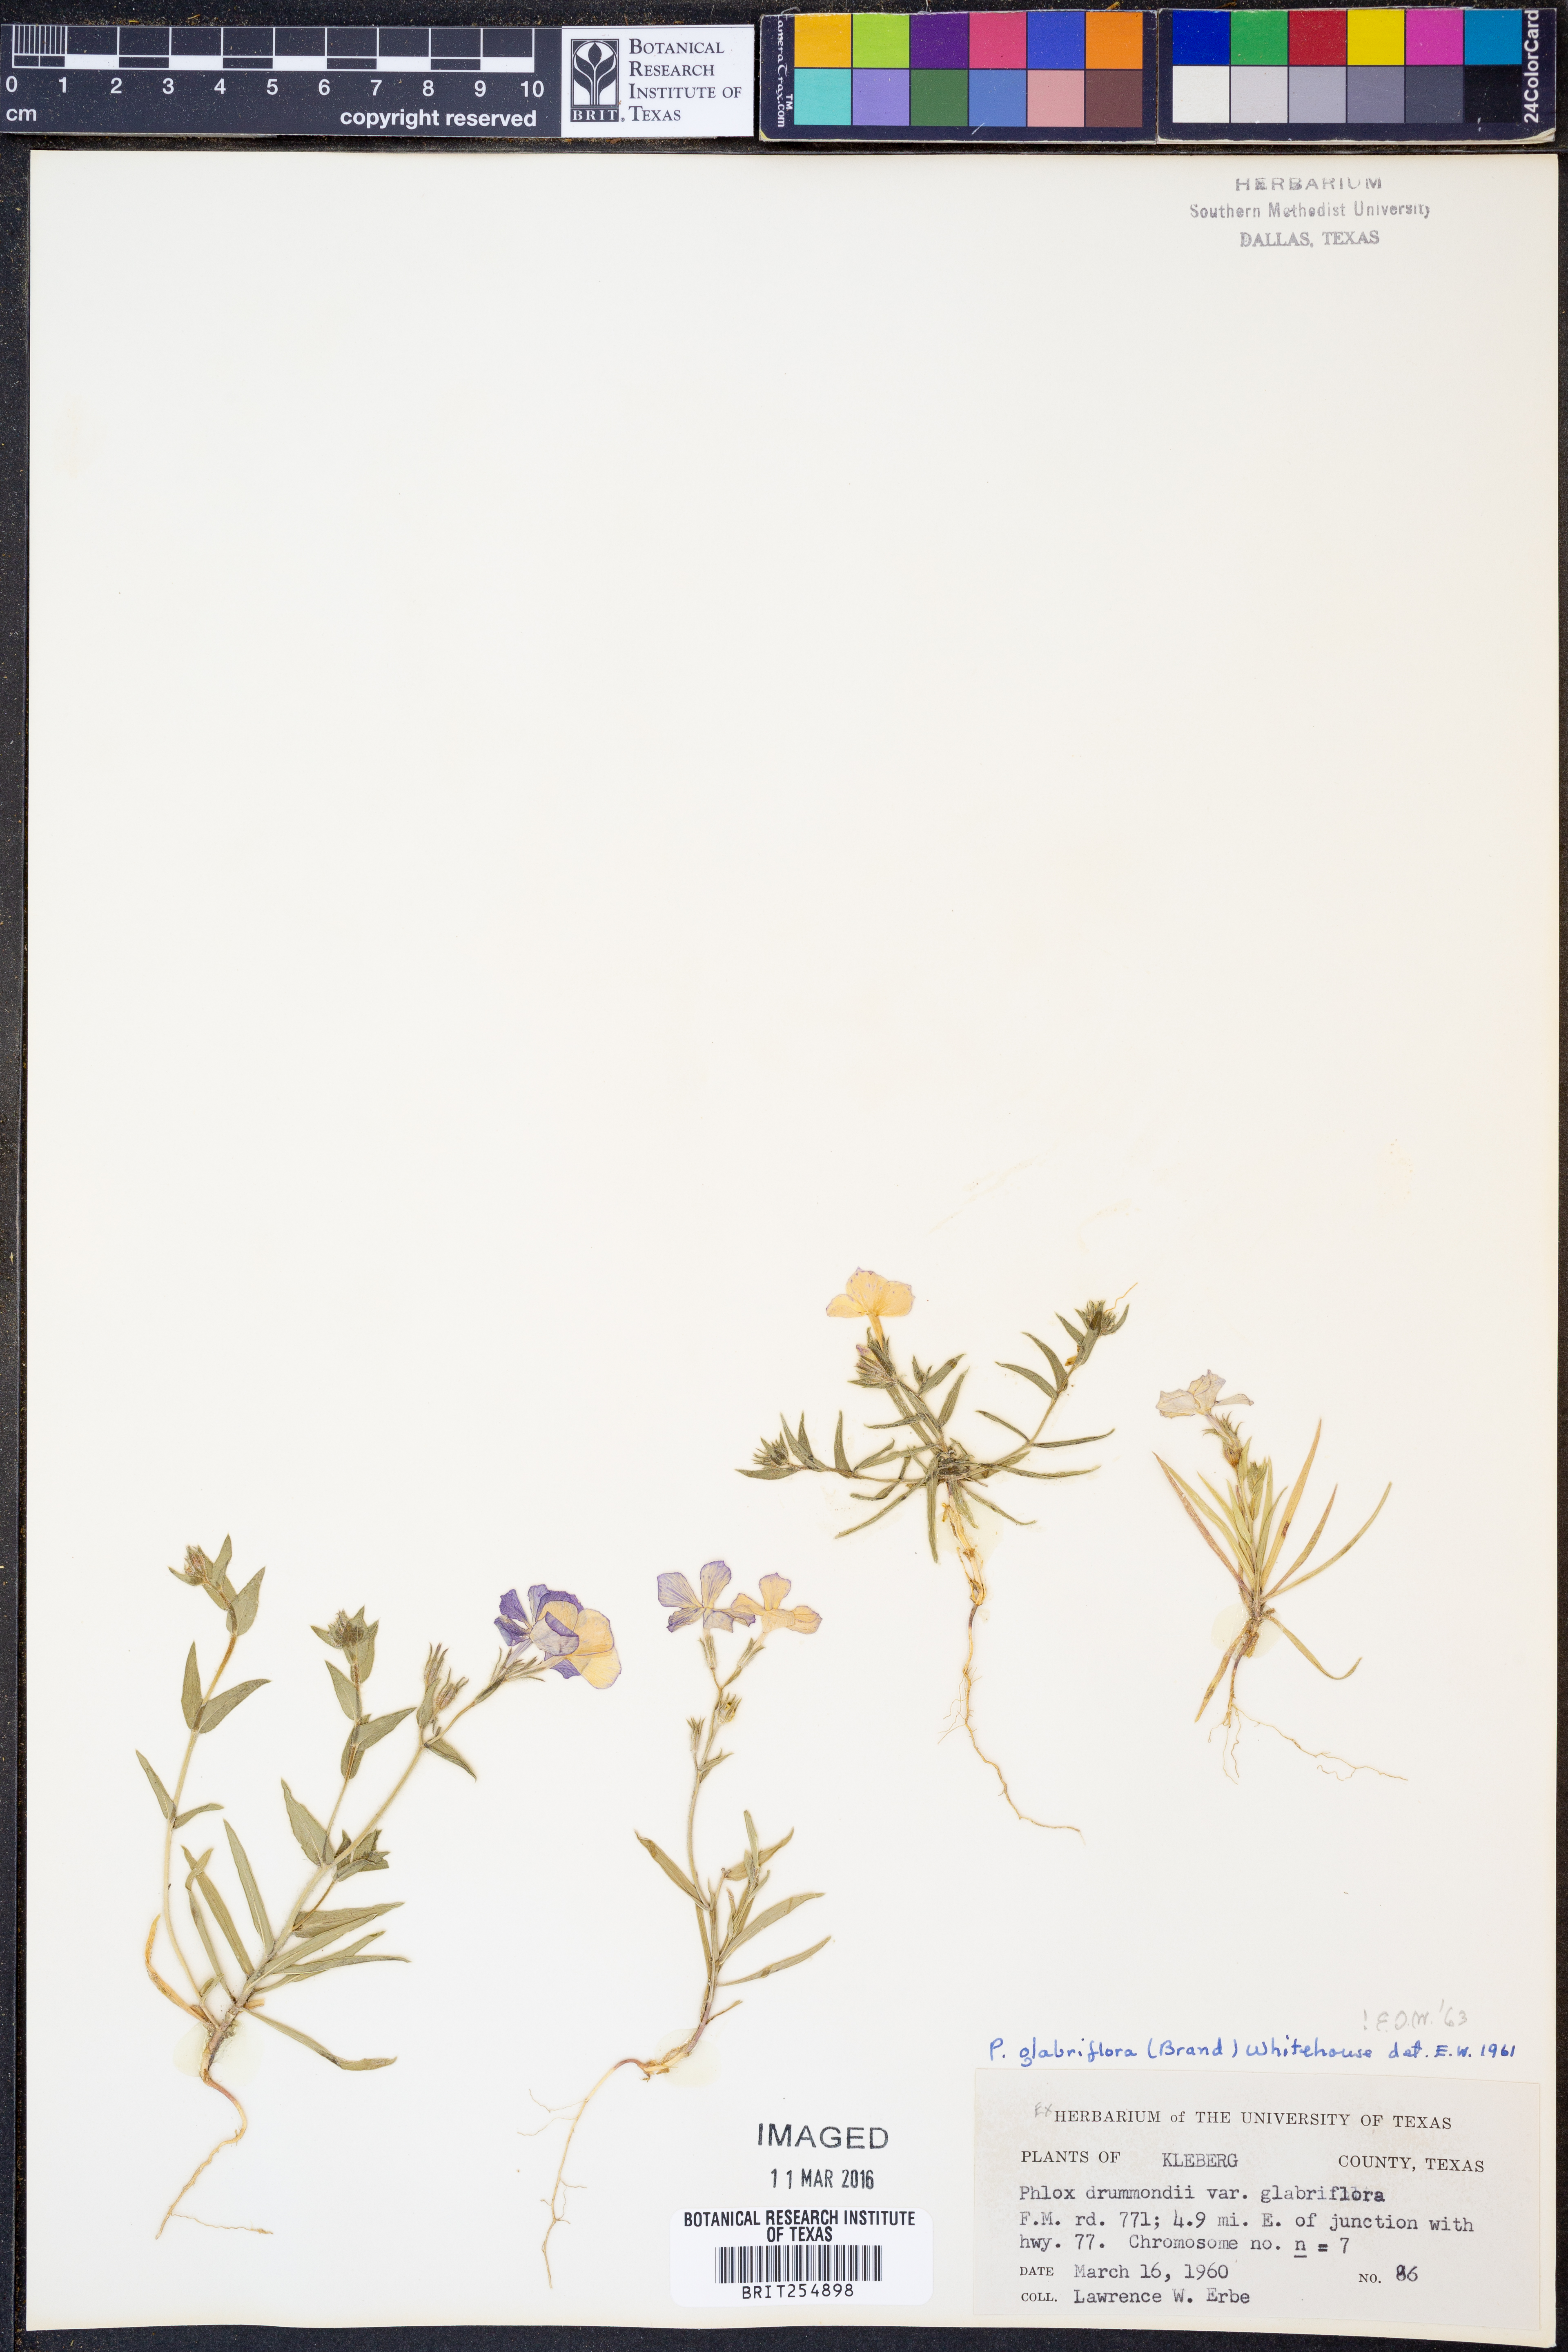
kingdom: Plantae
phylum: Tracheophyta
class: Magnoliopsida
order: Ericales
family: Polemoniaceae
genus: Phlox
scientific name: Phlox glabriflora
